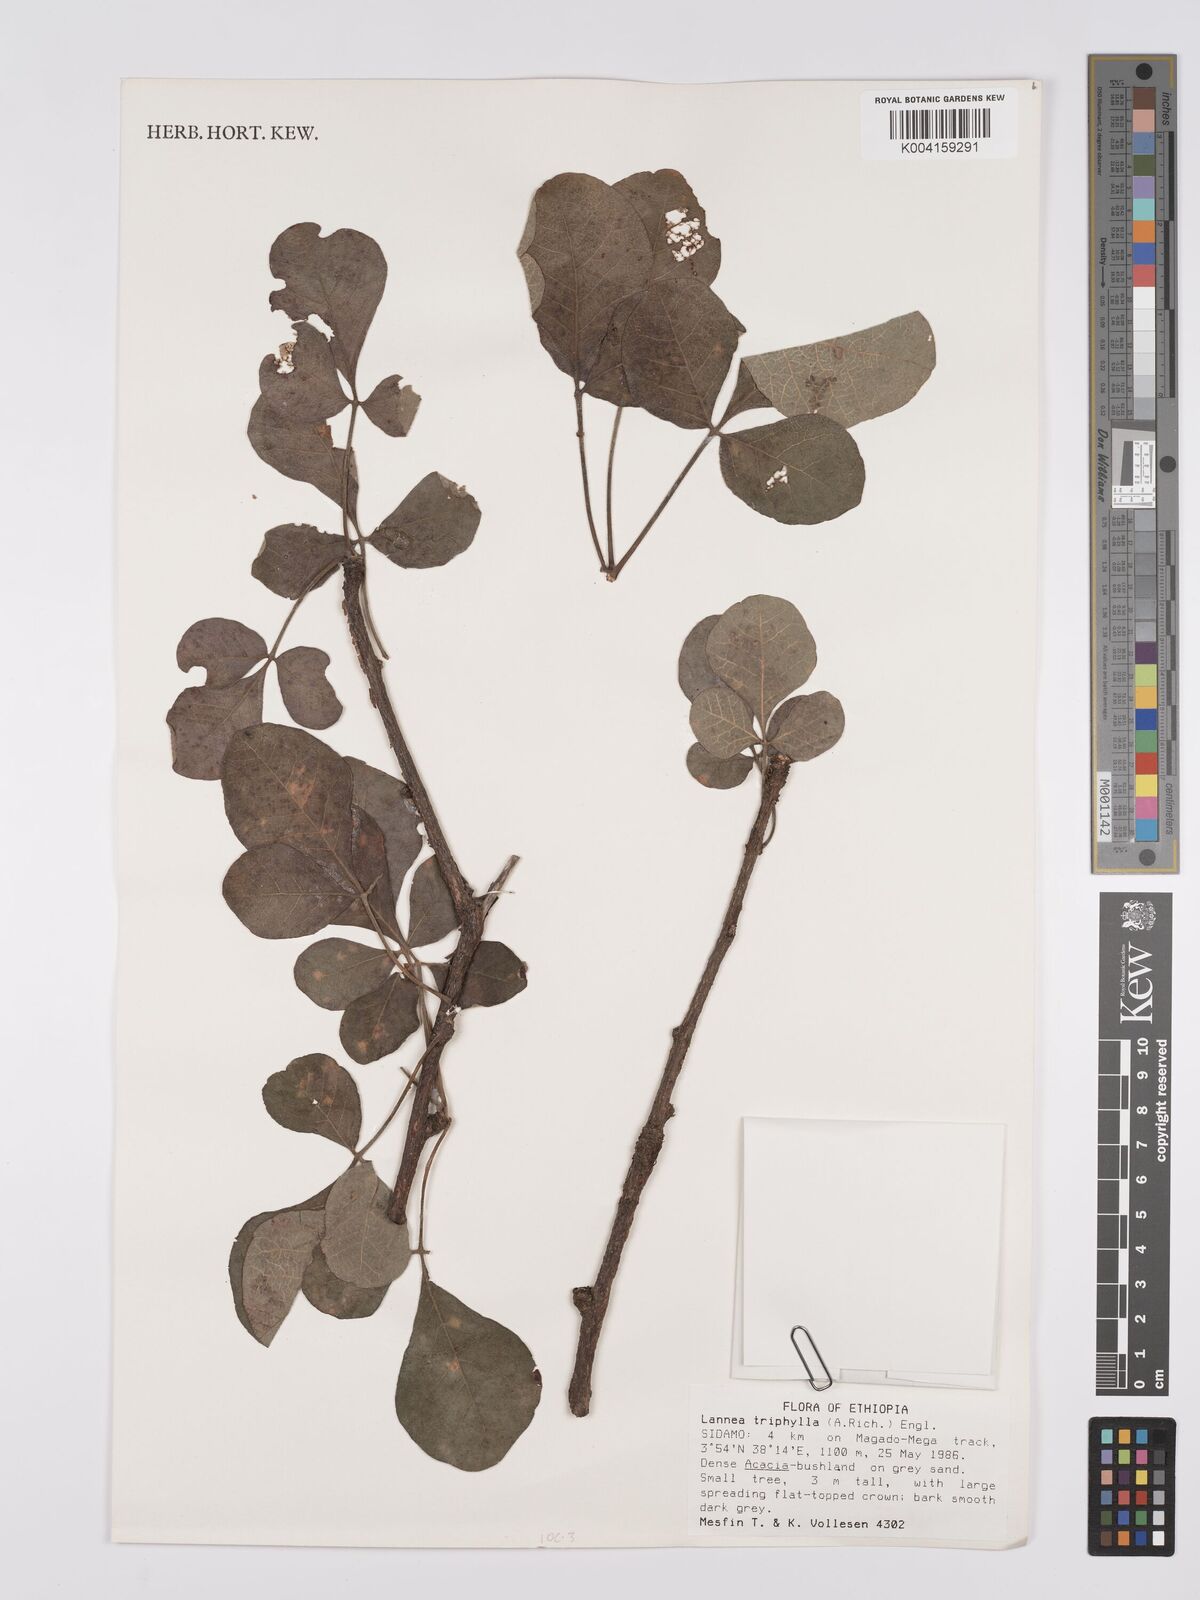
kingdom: Plantae
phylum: Tracheophyta
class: Magnoliopsida
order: Sapindales
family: Anacardiaceae
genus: Lannea
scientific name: Lannea triphylla
